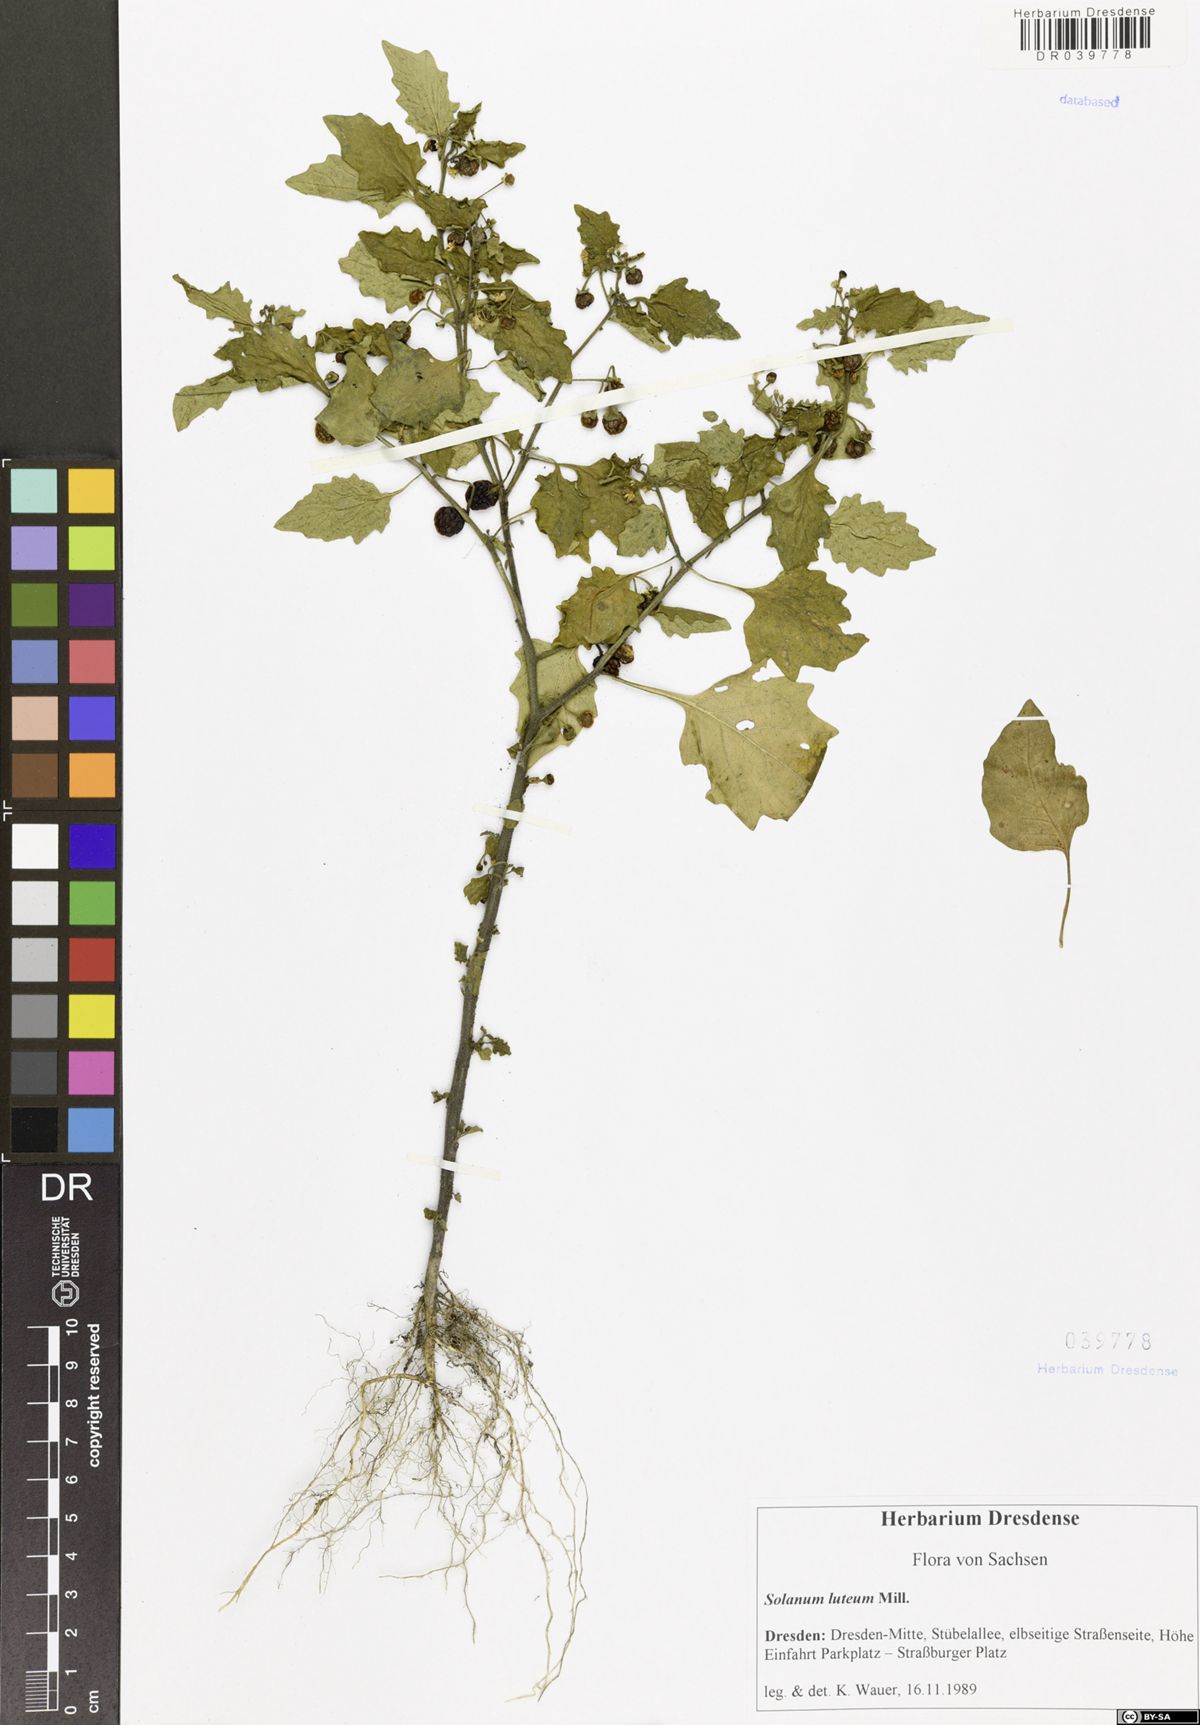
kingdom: Plantae
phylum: Tracheophyta
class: Magnoliopsida
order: Solanales
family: Solanaceae
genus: Solanum
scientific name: Solanum villosum
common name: Red nightshade
